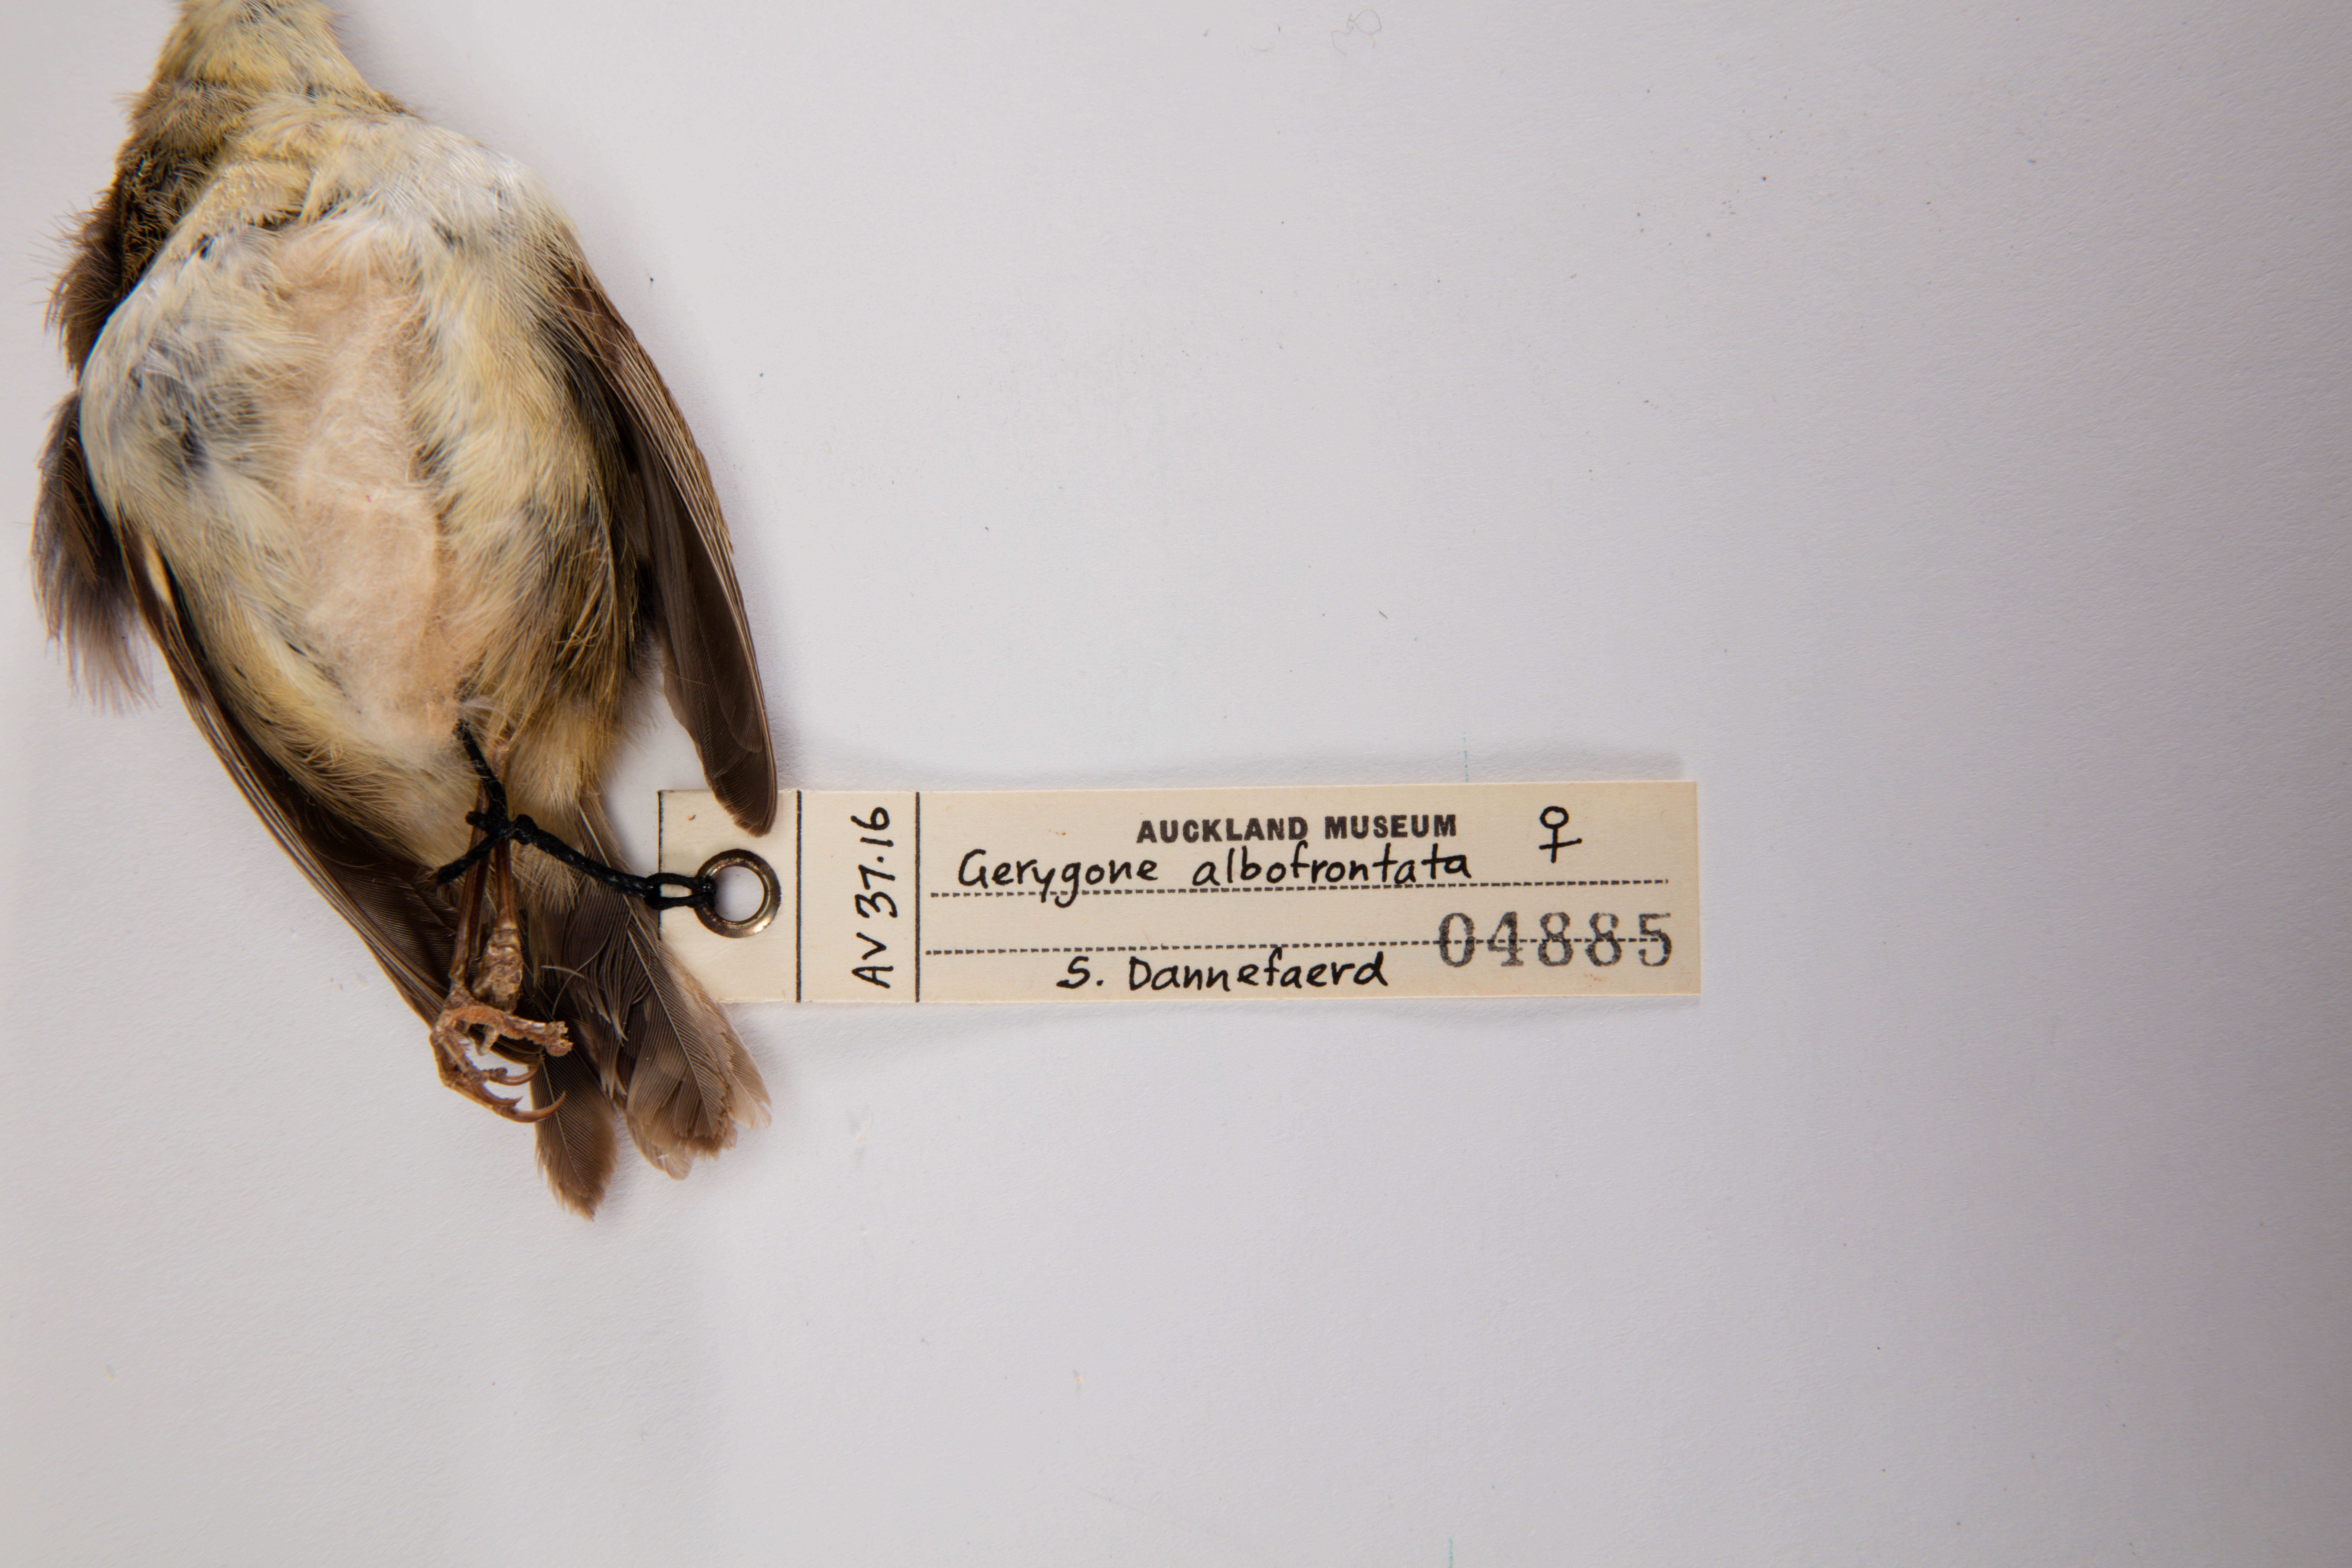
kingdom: Animalia
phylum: Chordata
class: Aves
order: Passeriformes
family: Acanthizidae
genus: Gerygone
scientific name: Gerygone albofrontata
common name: Chatham gerygone
